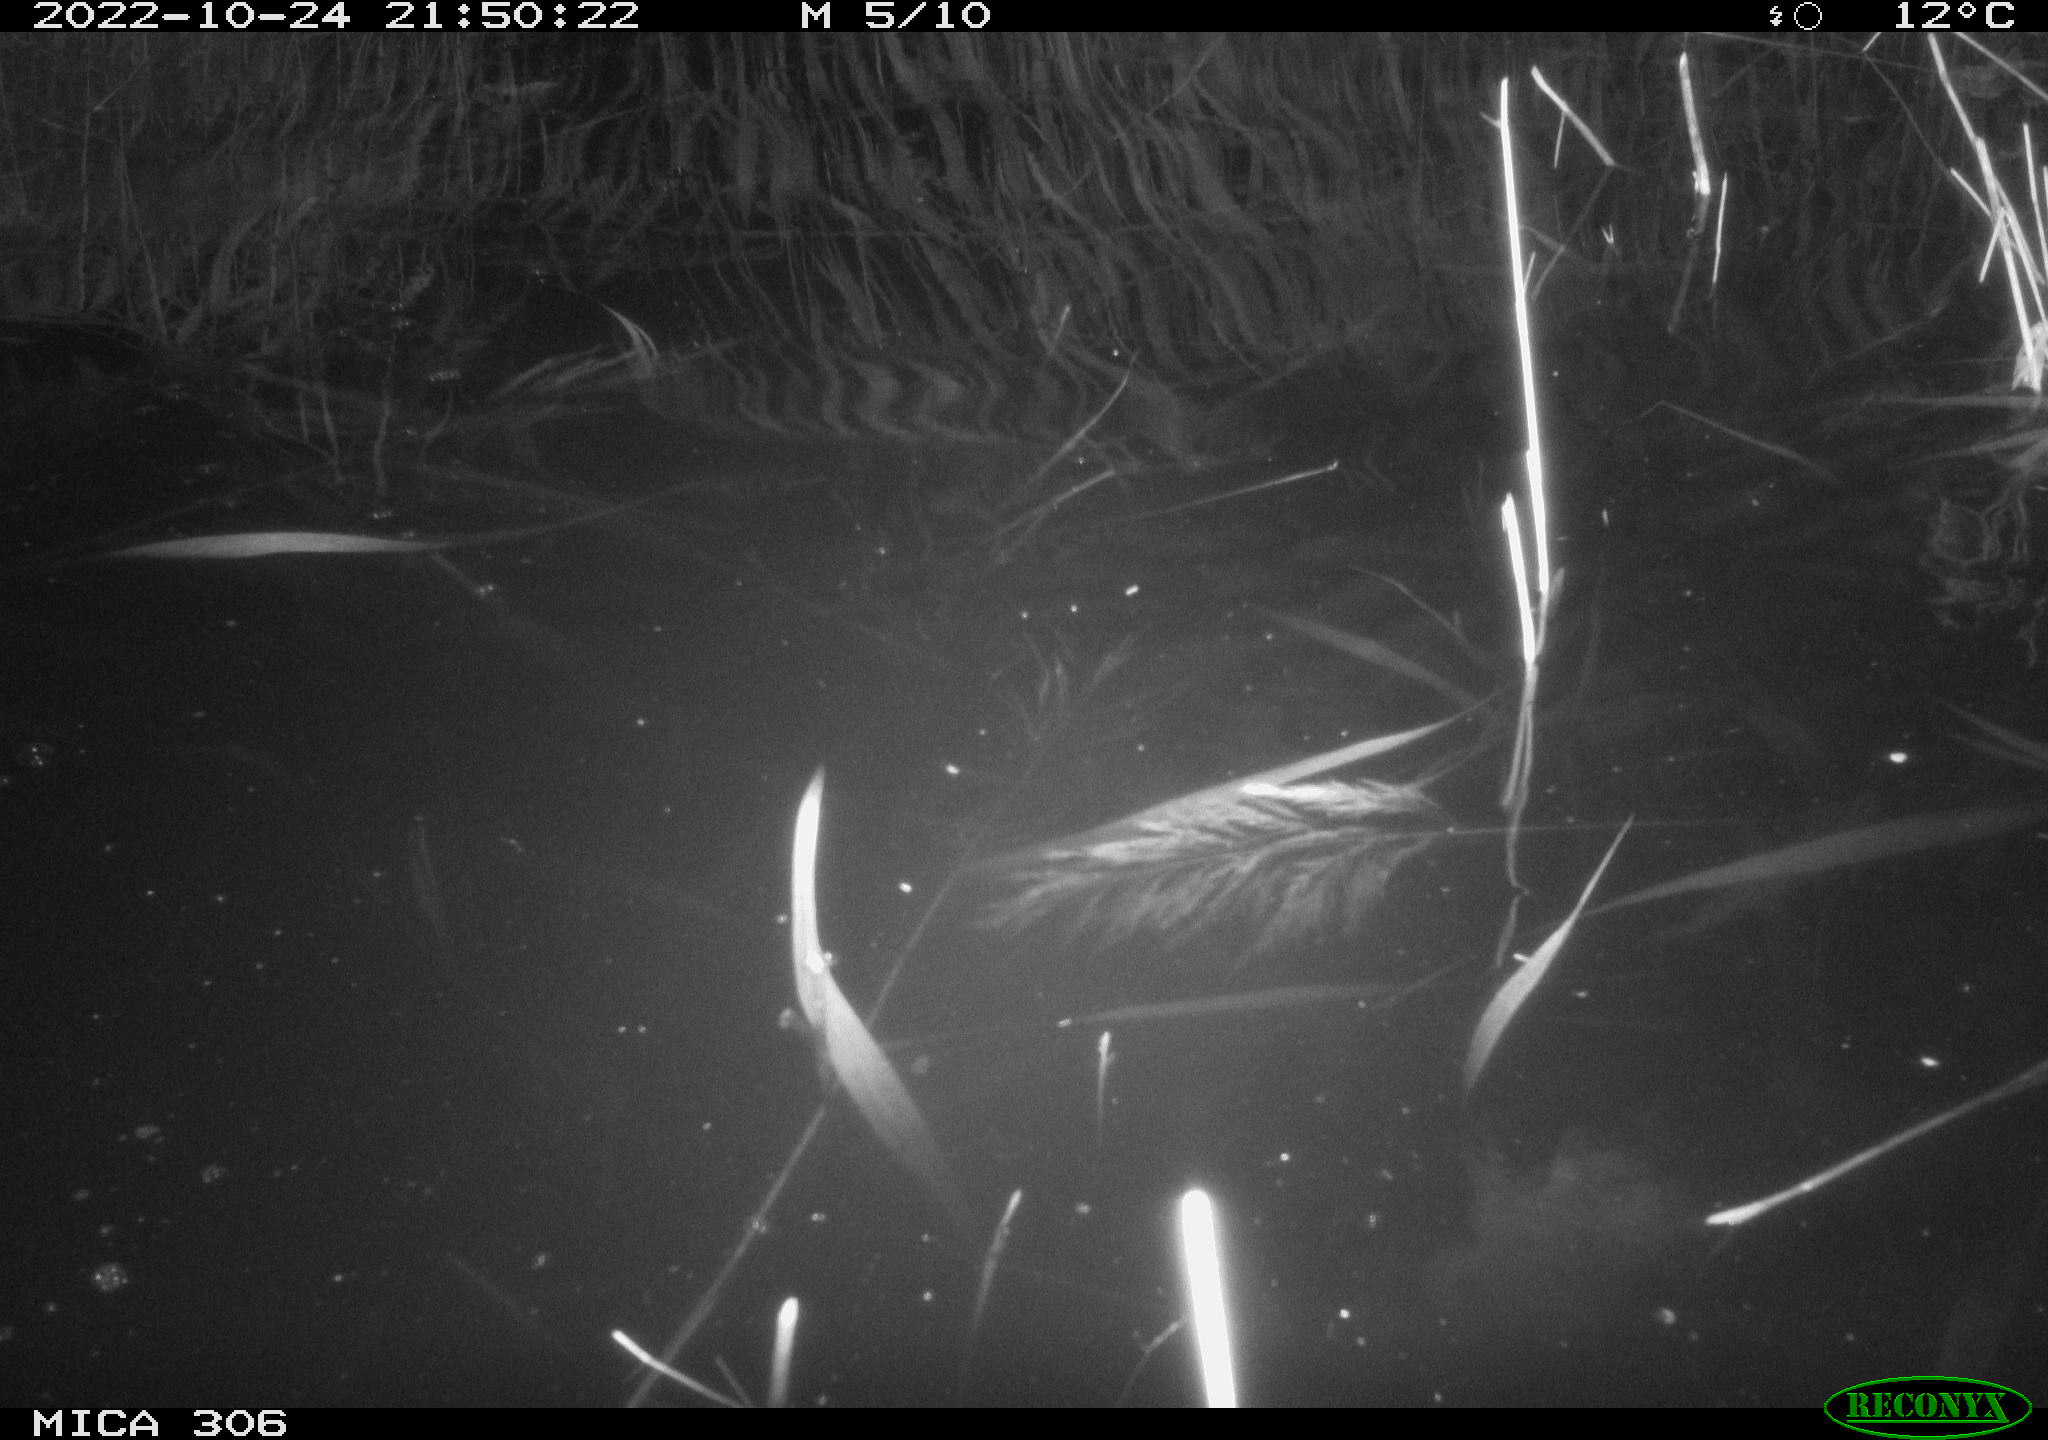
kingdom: Animalia
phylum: Chordata
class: Mammalia
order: Rodentia
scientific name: Rodentia
